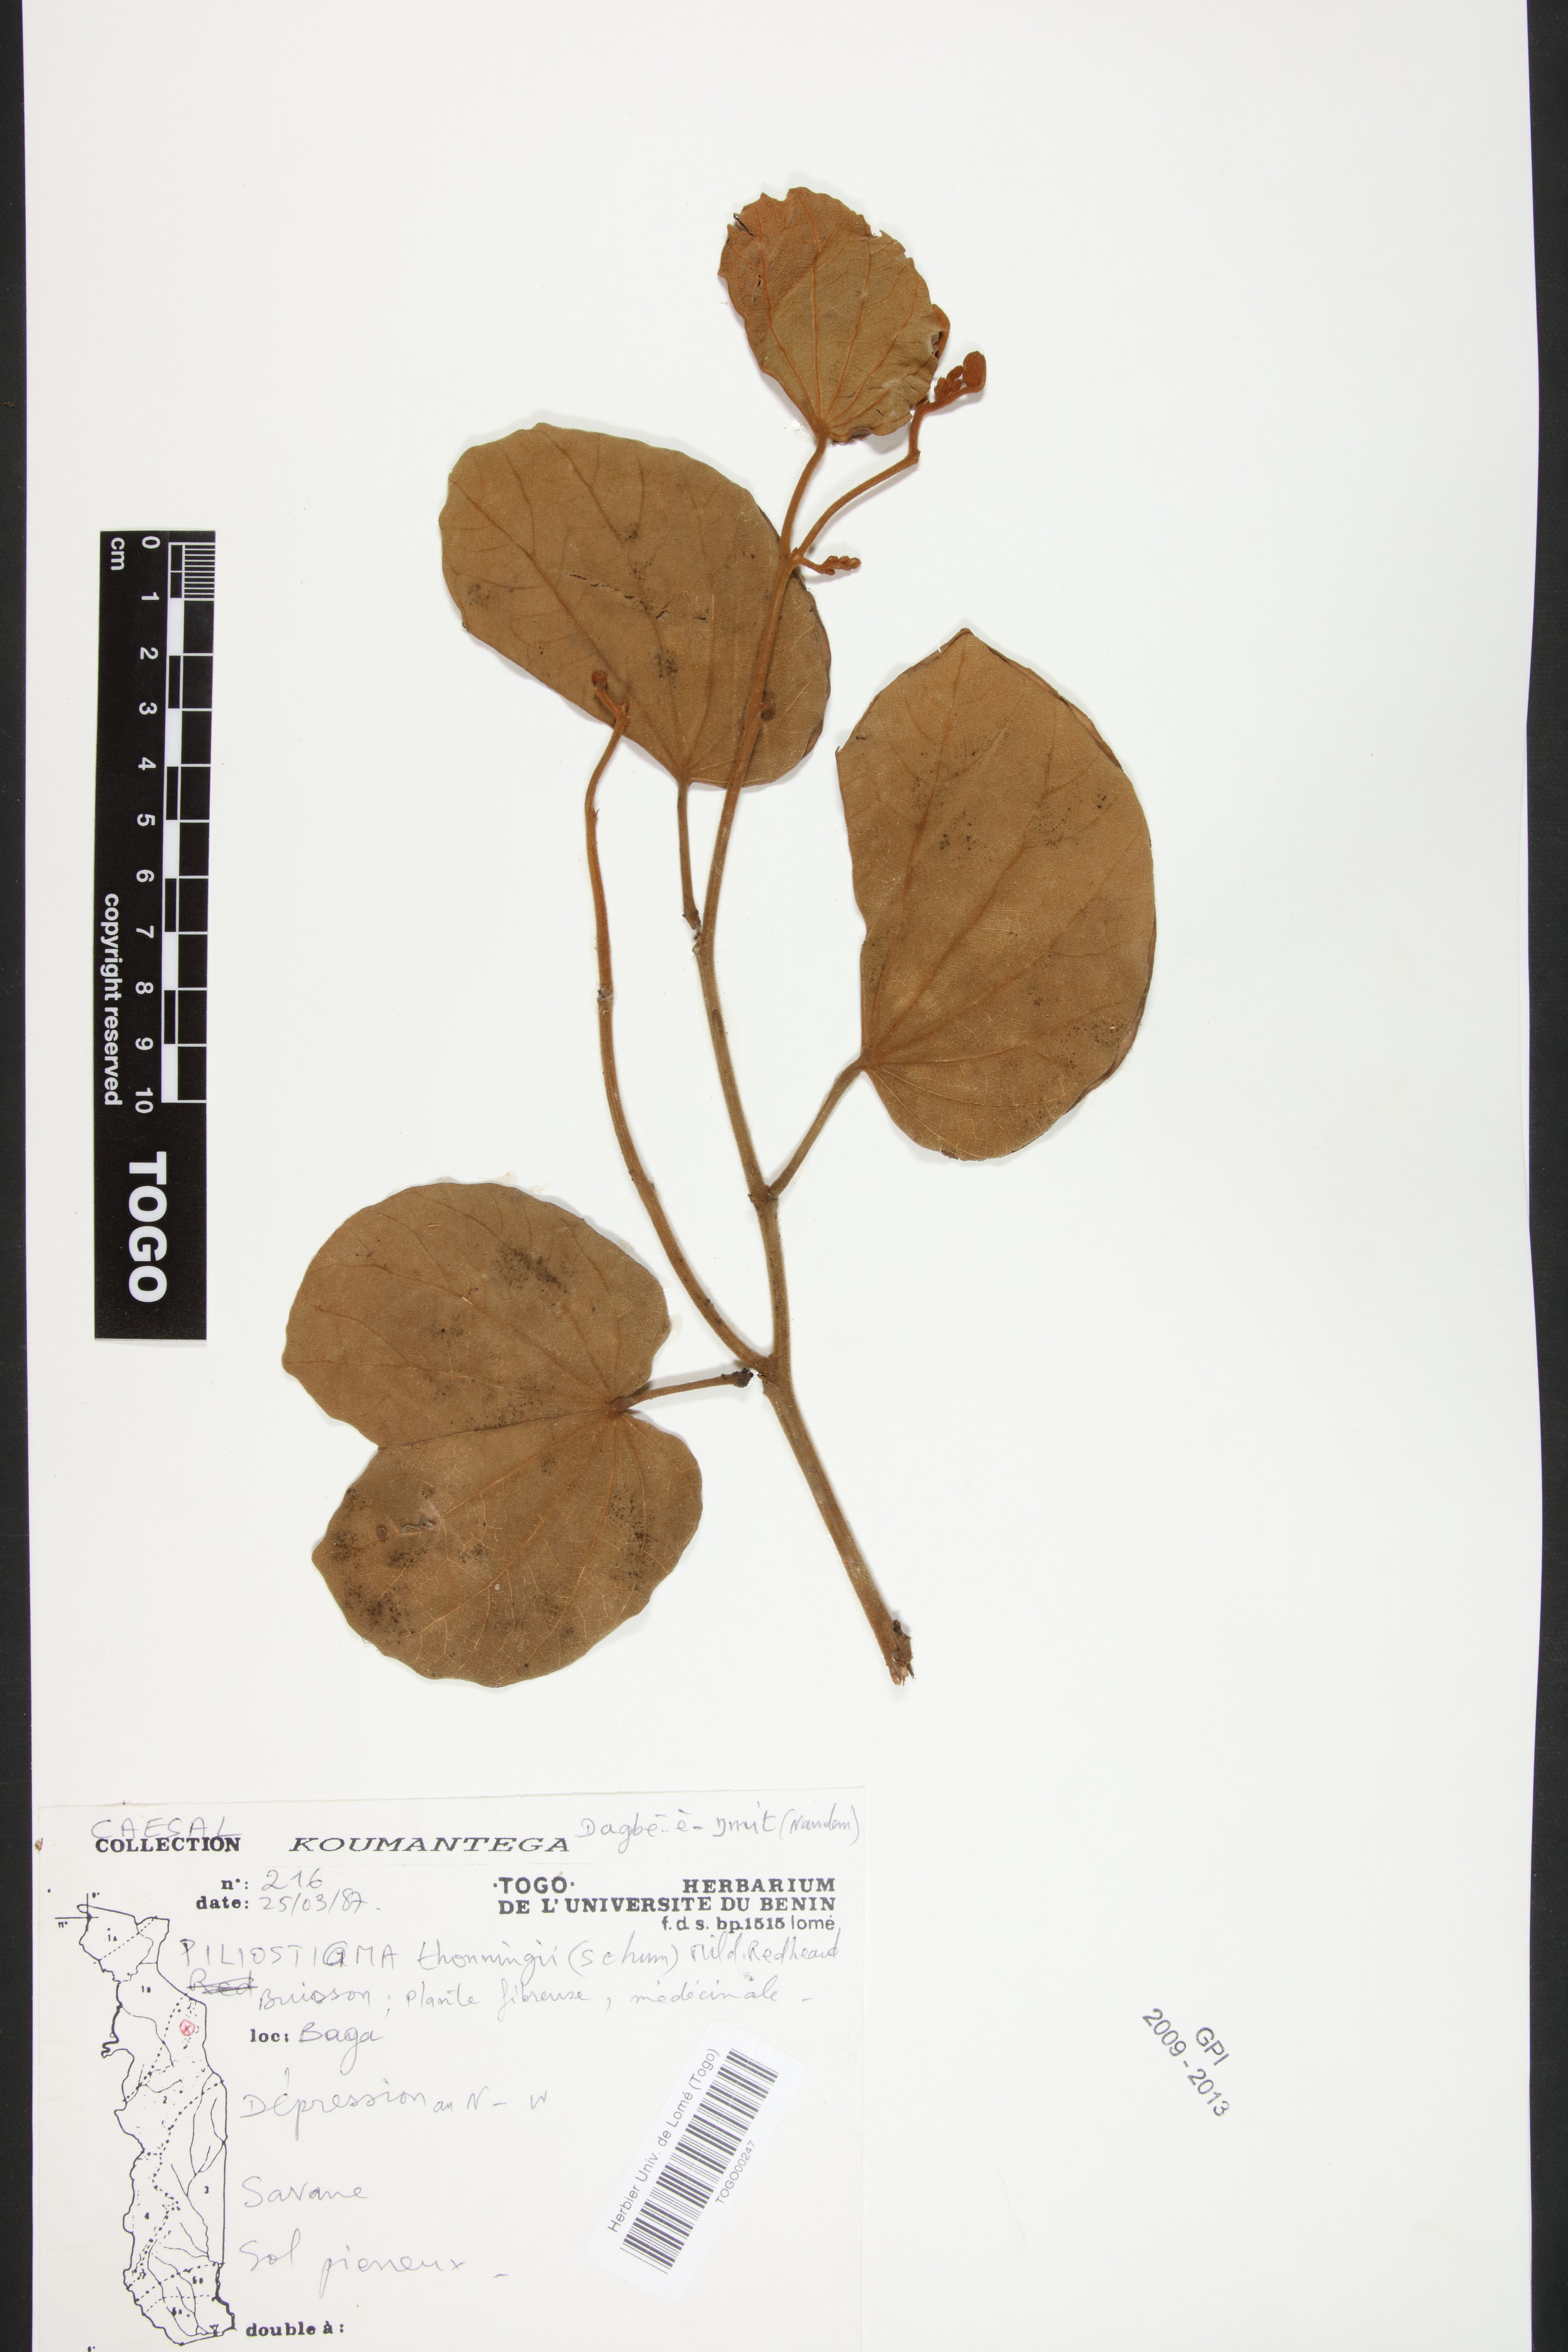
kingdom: Plantae
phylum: Tracheophyta
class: Magnoliopsida
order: Fabales
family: Fabaceae
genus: Piliostigma
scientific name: Piliostigma thonningii
